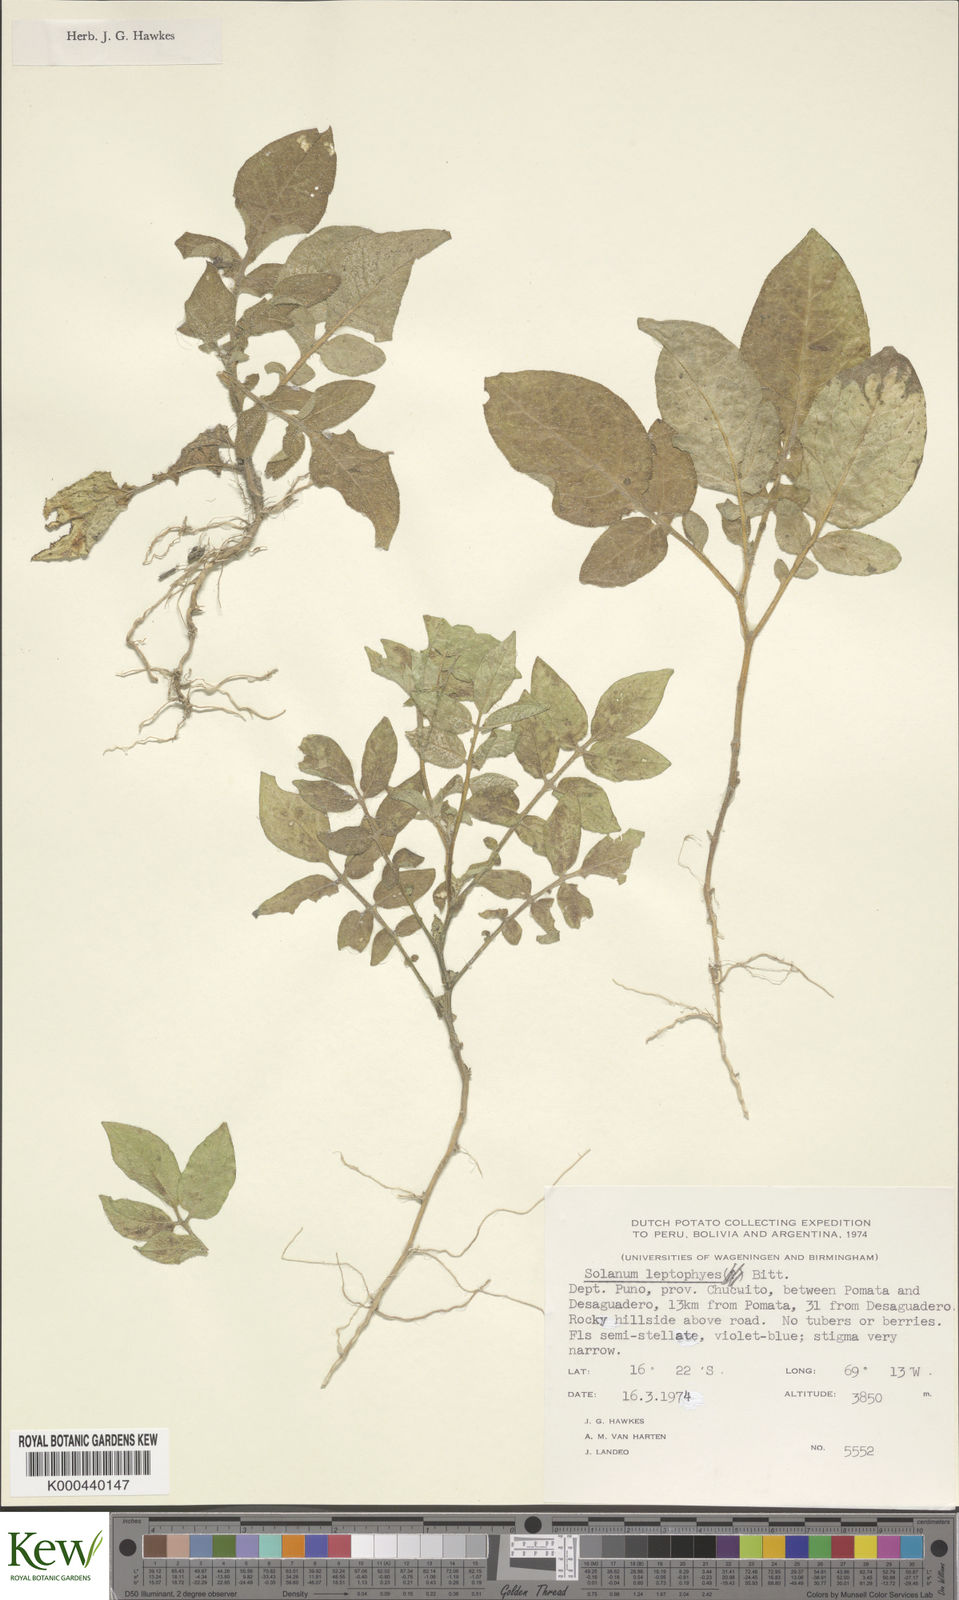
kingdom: Plantae
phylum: Tracheophyta
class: Magnoliopsida
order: Solanales
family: Solanaceae
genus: Solanum
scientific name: Solanum candolleanum
